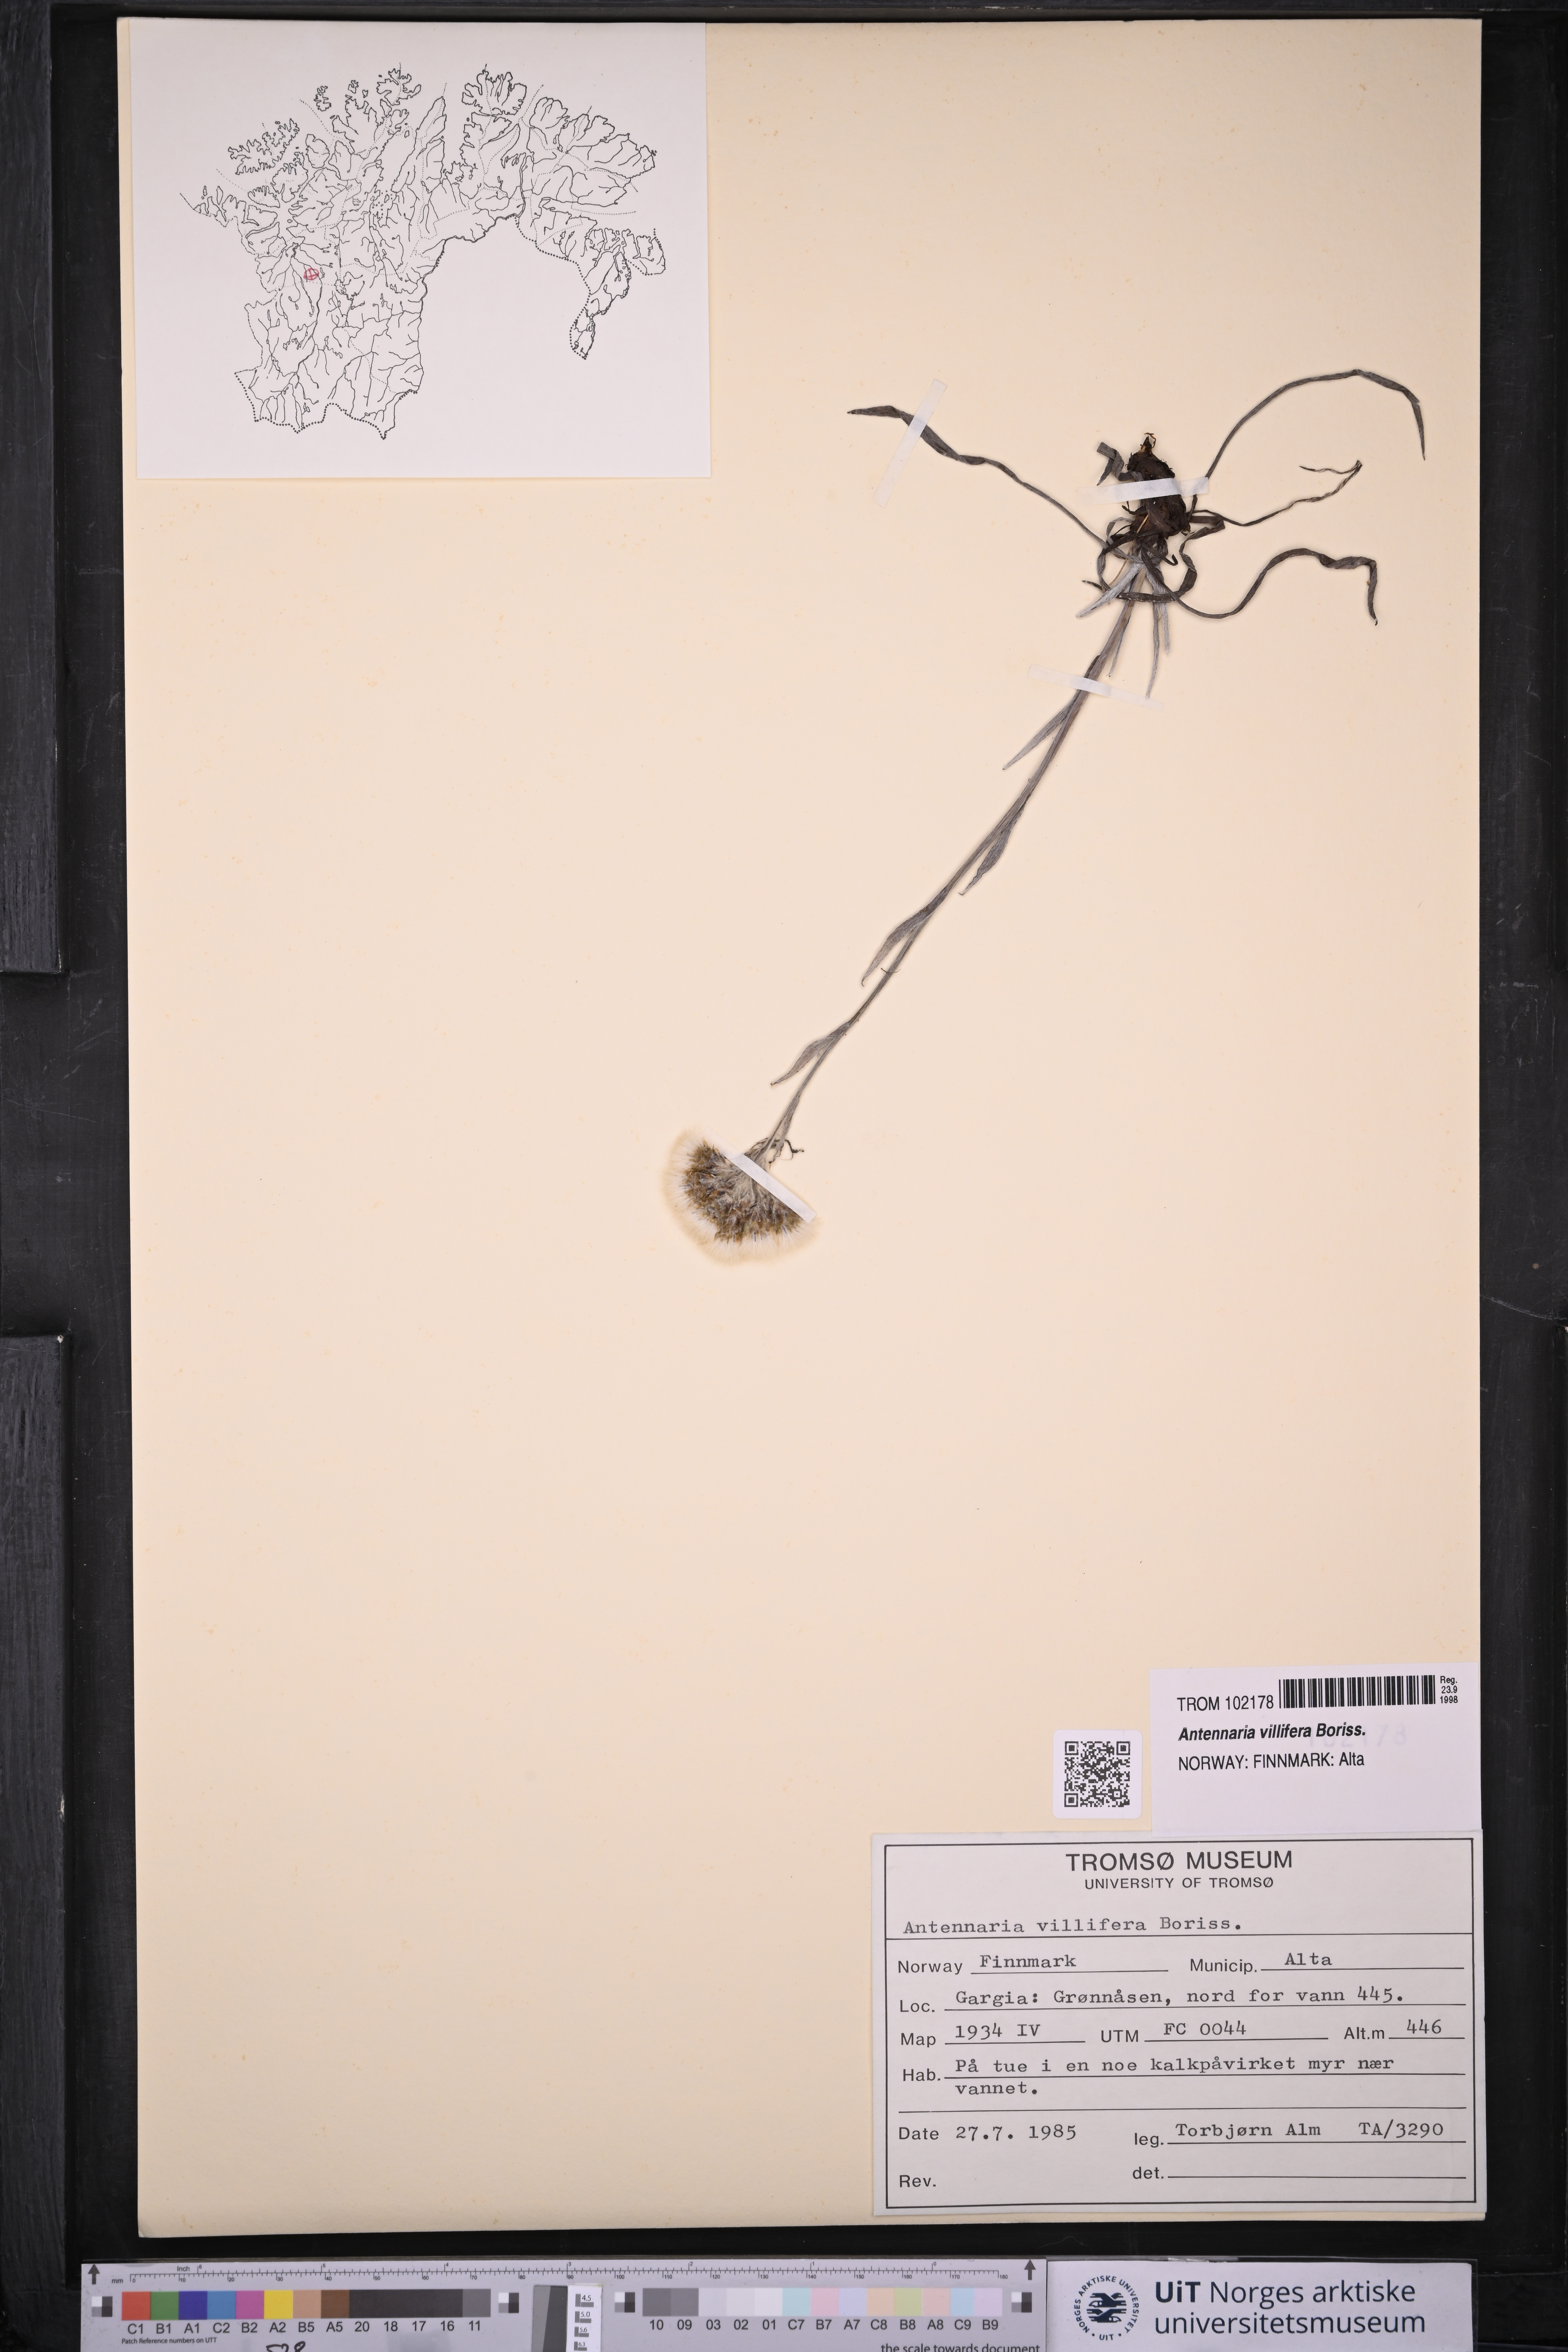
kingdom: Plantae
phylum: Tracheophyta
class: Magnoliopsida
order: Asterales
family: Asteraceae
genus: Antennaria
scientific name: Antennaria lanata
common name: Woolly pussytoes
